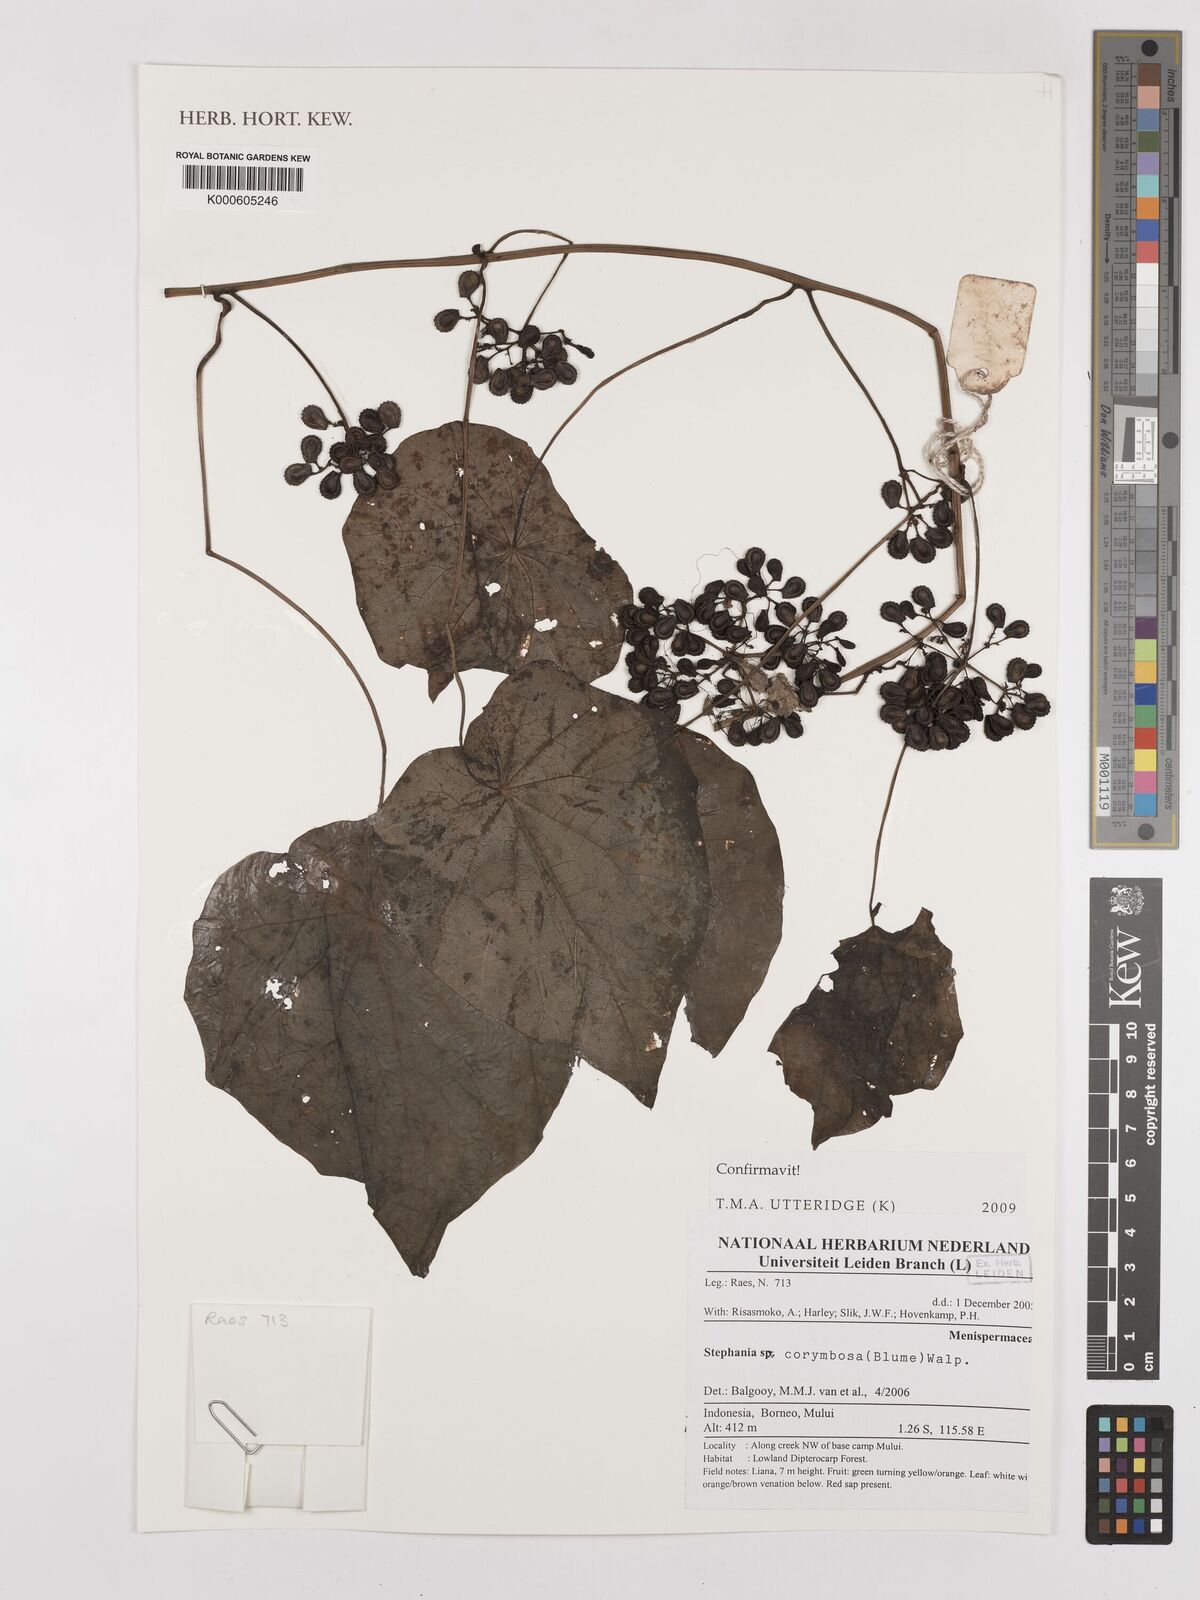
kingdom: Plantae
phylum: Tracheophyta
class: Magnoliopsida
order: Ranunculales
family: Menispermaceae
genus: Stephania
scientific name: Stephania corymbosa
